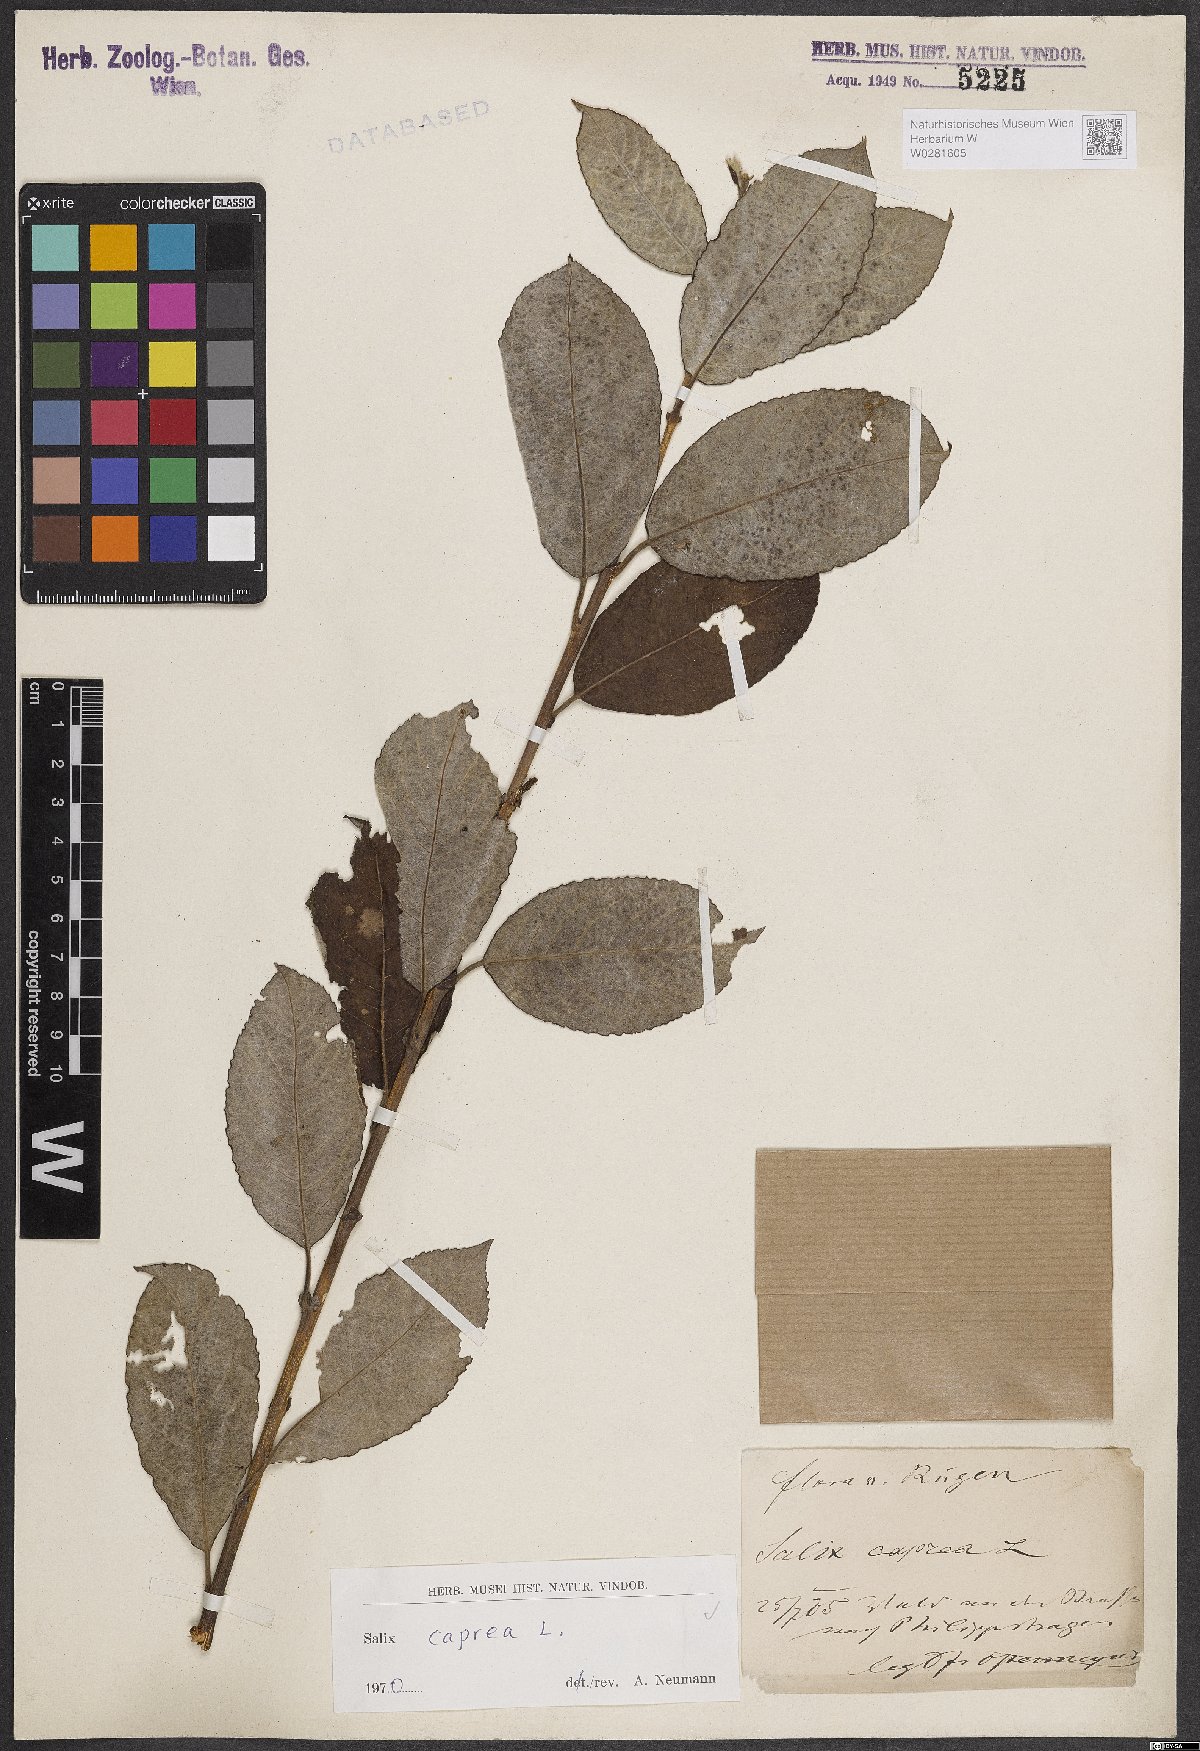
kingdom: Plantae
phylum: Tracheophyta
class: Magnoliopsida
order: Malpighiales
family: Salicaceae
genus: Salix
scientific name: Salix caprea
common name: Goat willow
